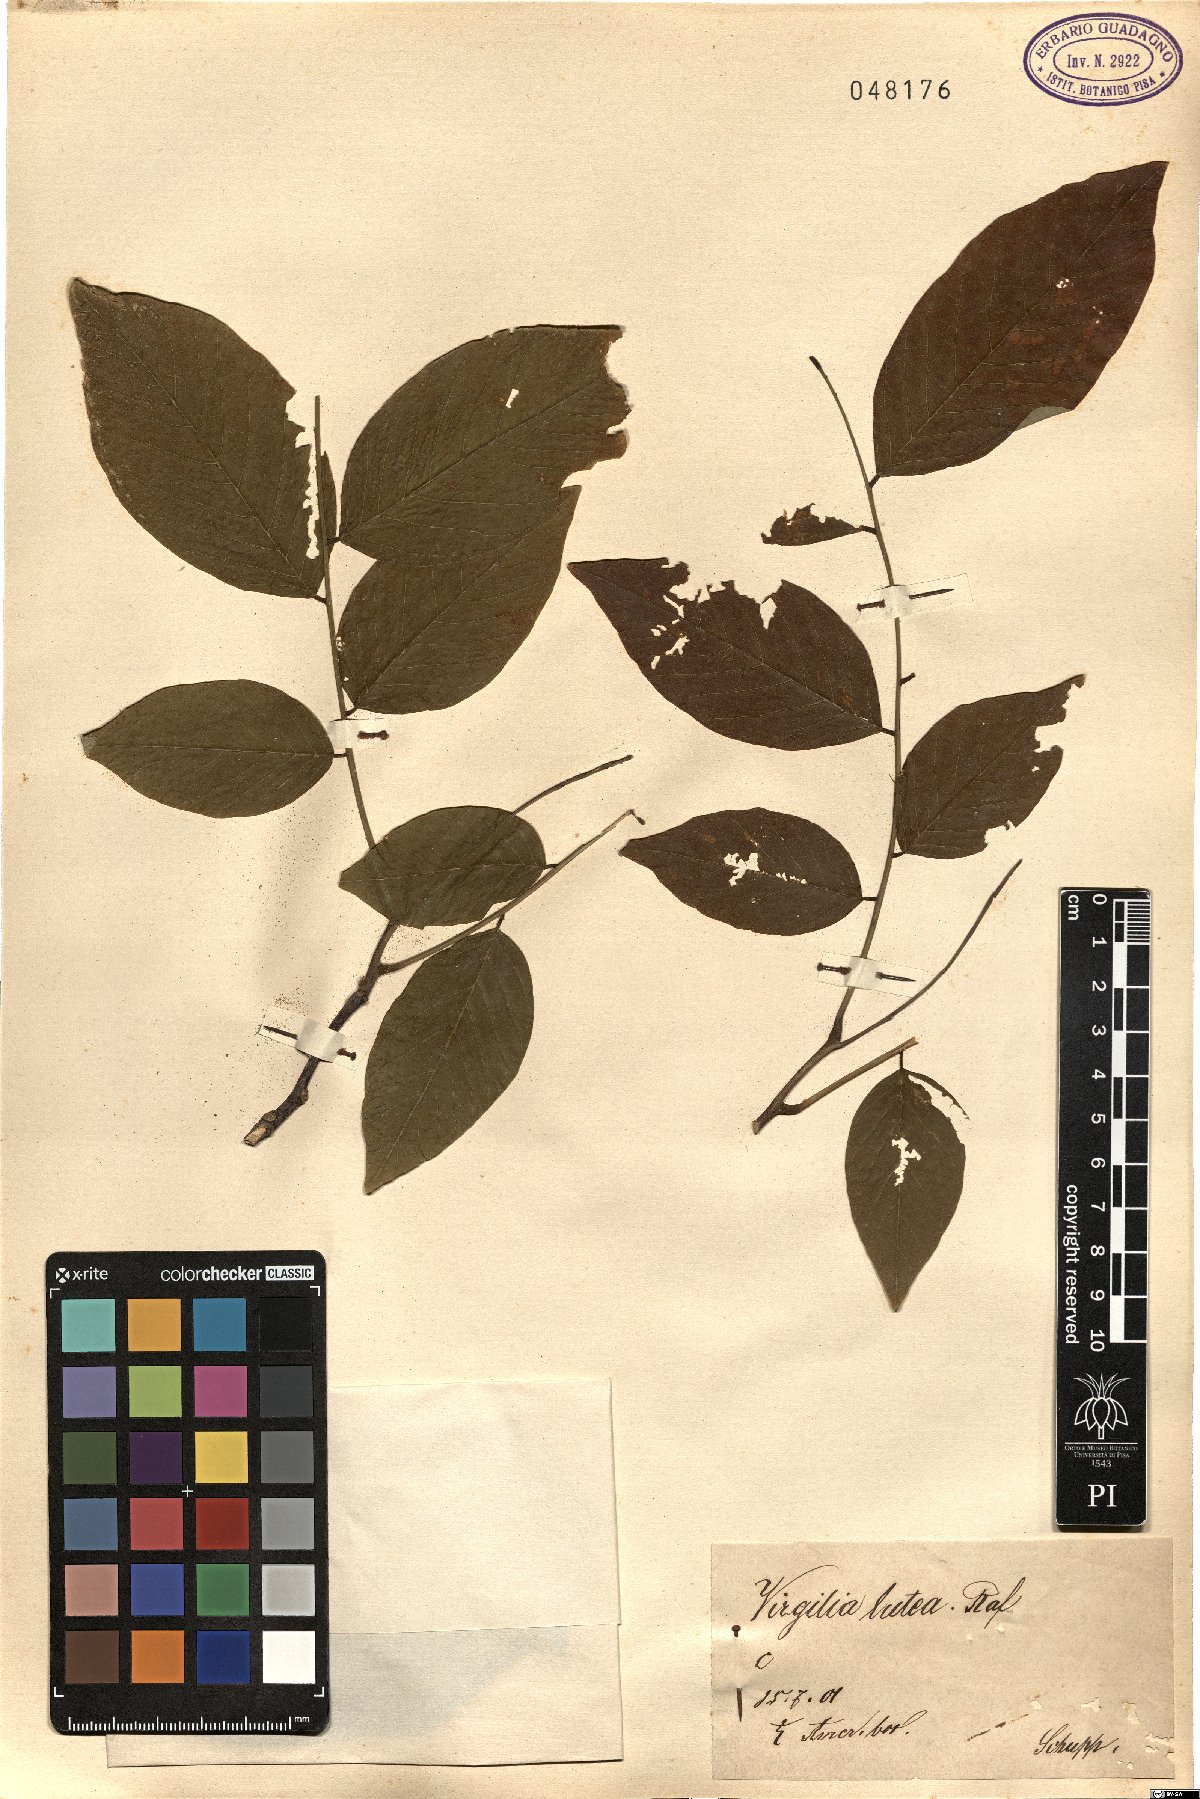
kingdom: Plantae
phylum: Tracheophyta
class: Magnoliopsida
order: Fabales
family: Fabaceae
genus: Cladrastis
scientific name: Cladrastis kentukea
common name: Kentucky yellow-wood
